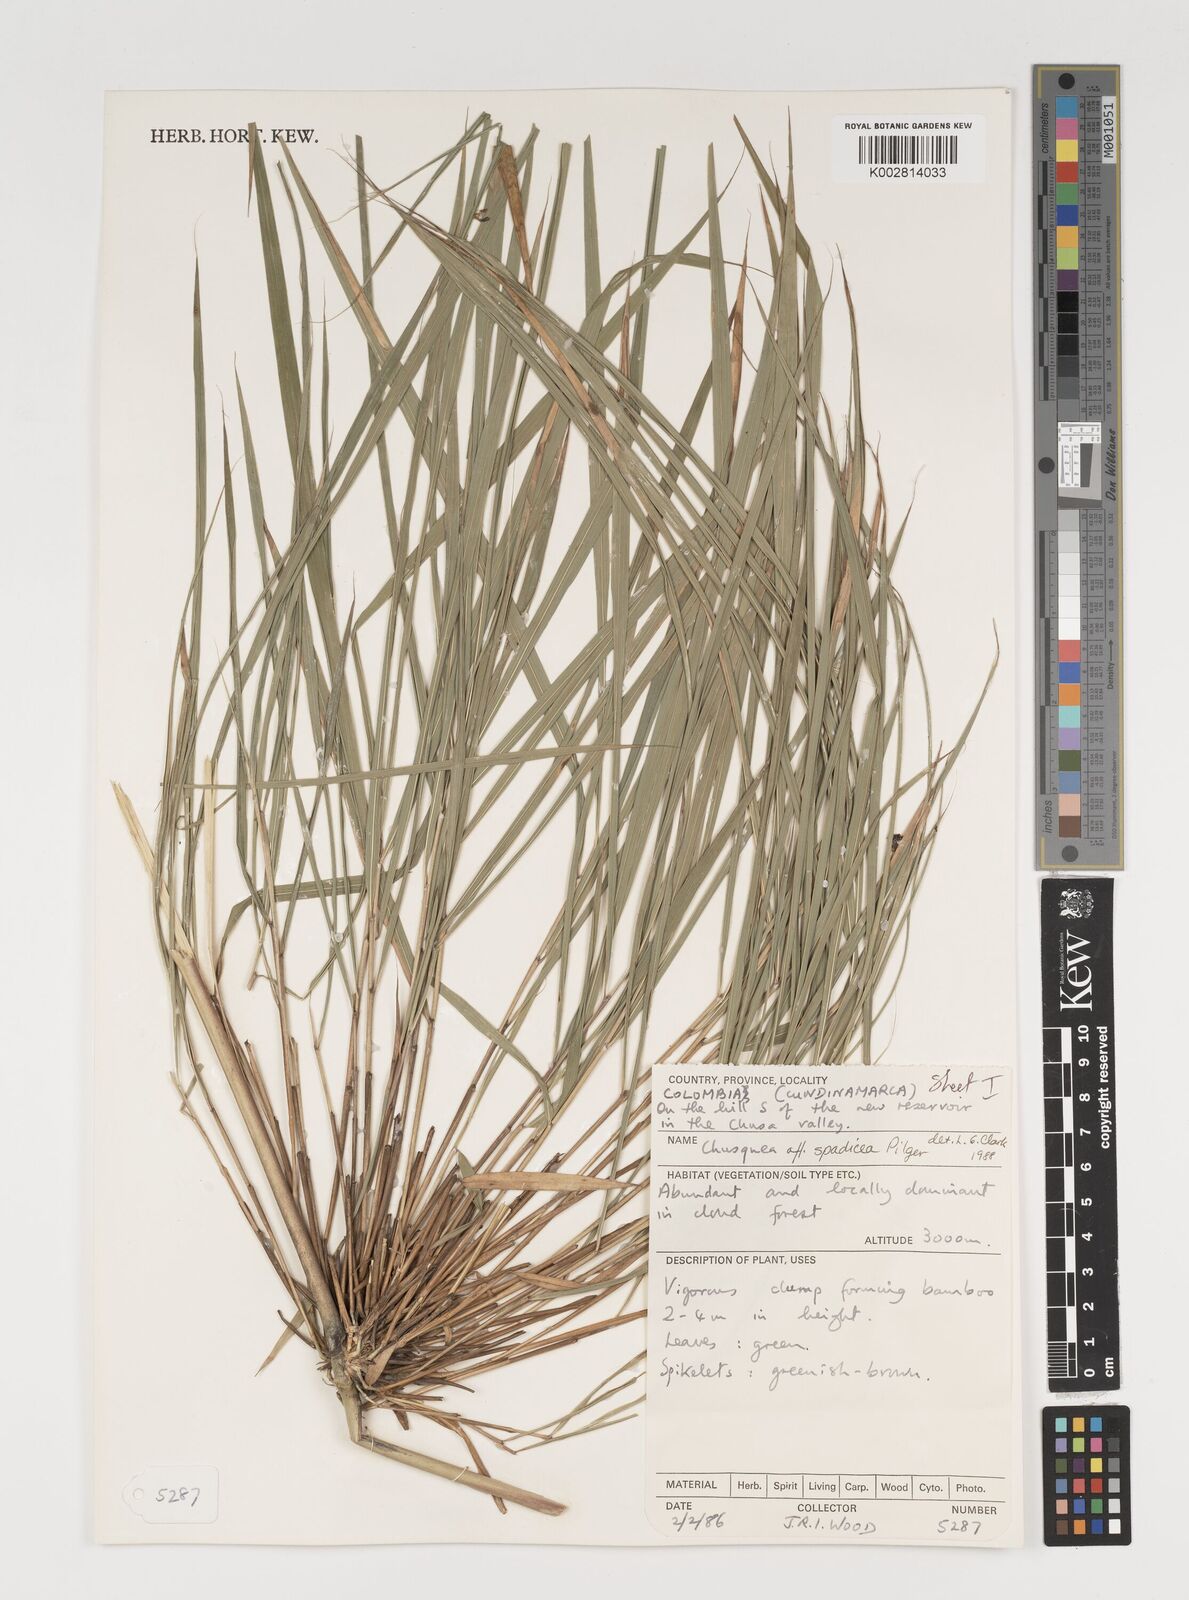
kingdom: Plantae
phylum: Tracheophyta
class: Liliopsida
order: Poales
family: Poaceae
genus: Chusquea
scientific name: Chusquea
